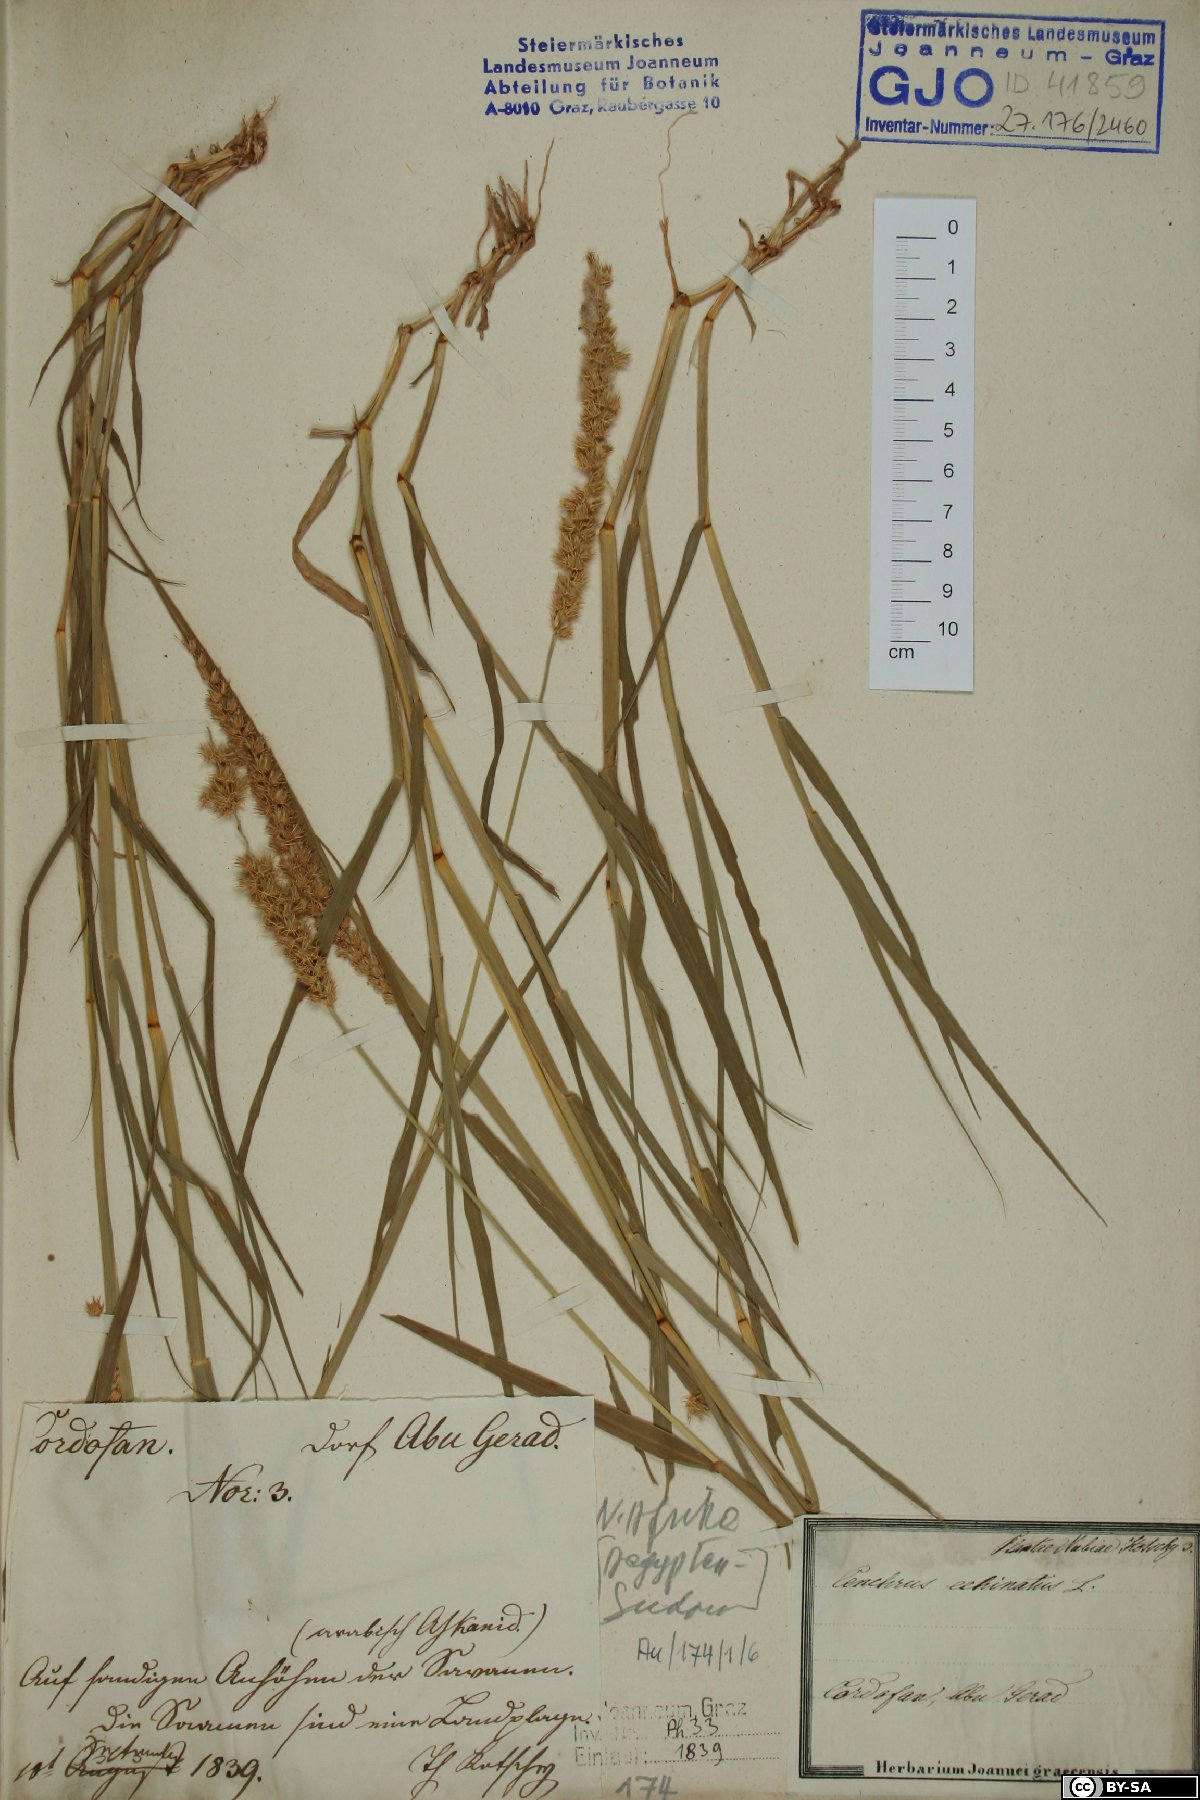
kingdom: Plantae
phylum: Tracheophyta
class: Liliopsida
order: Poales
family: Poaceae
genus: Cenchrus
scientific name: Cenchrus echinatus
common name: Southern sandbur
